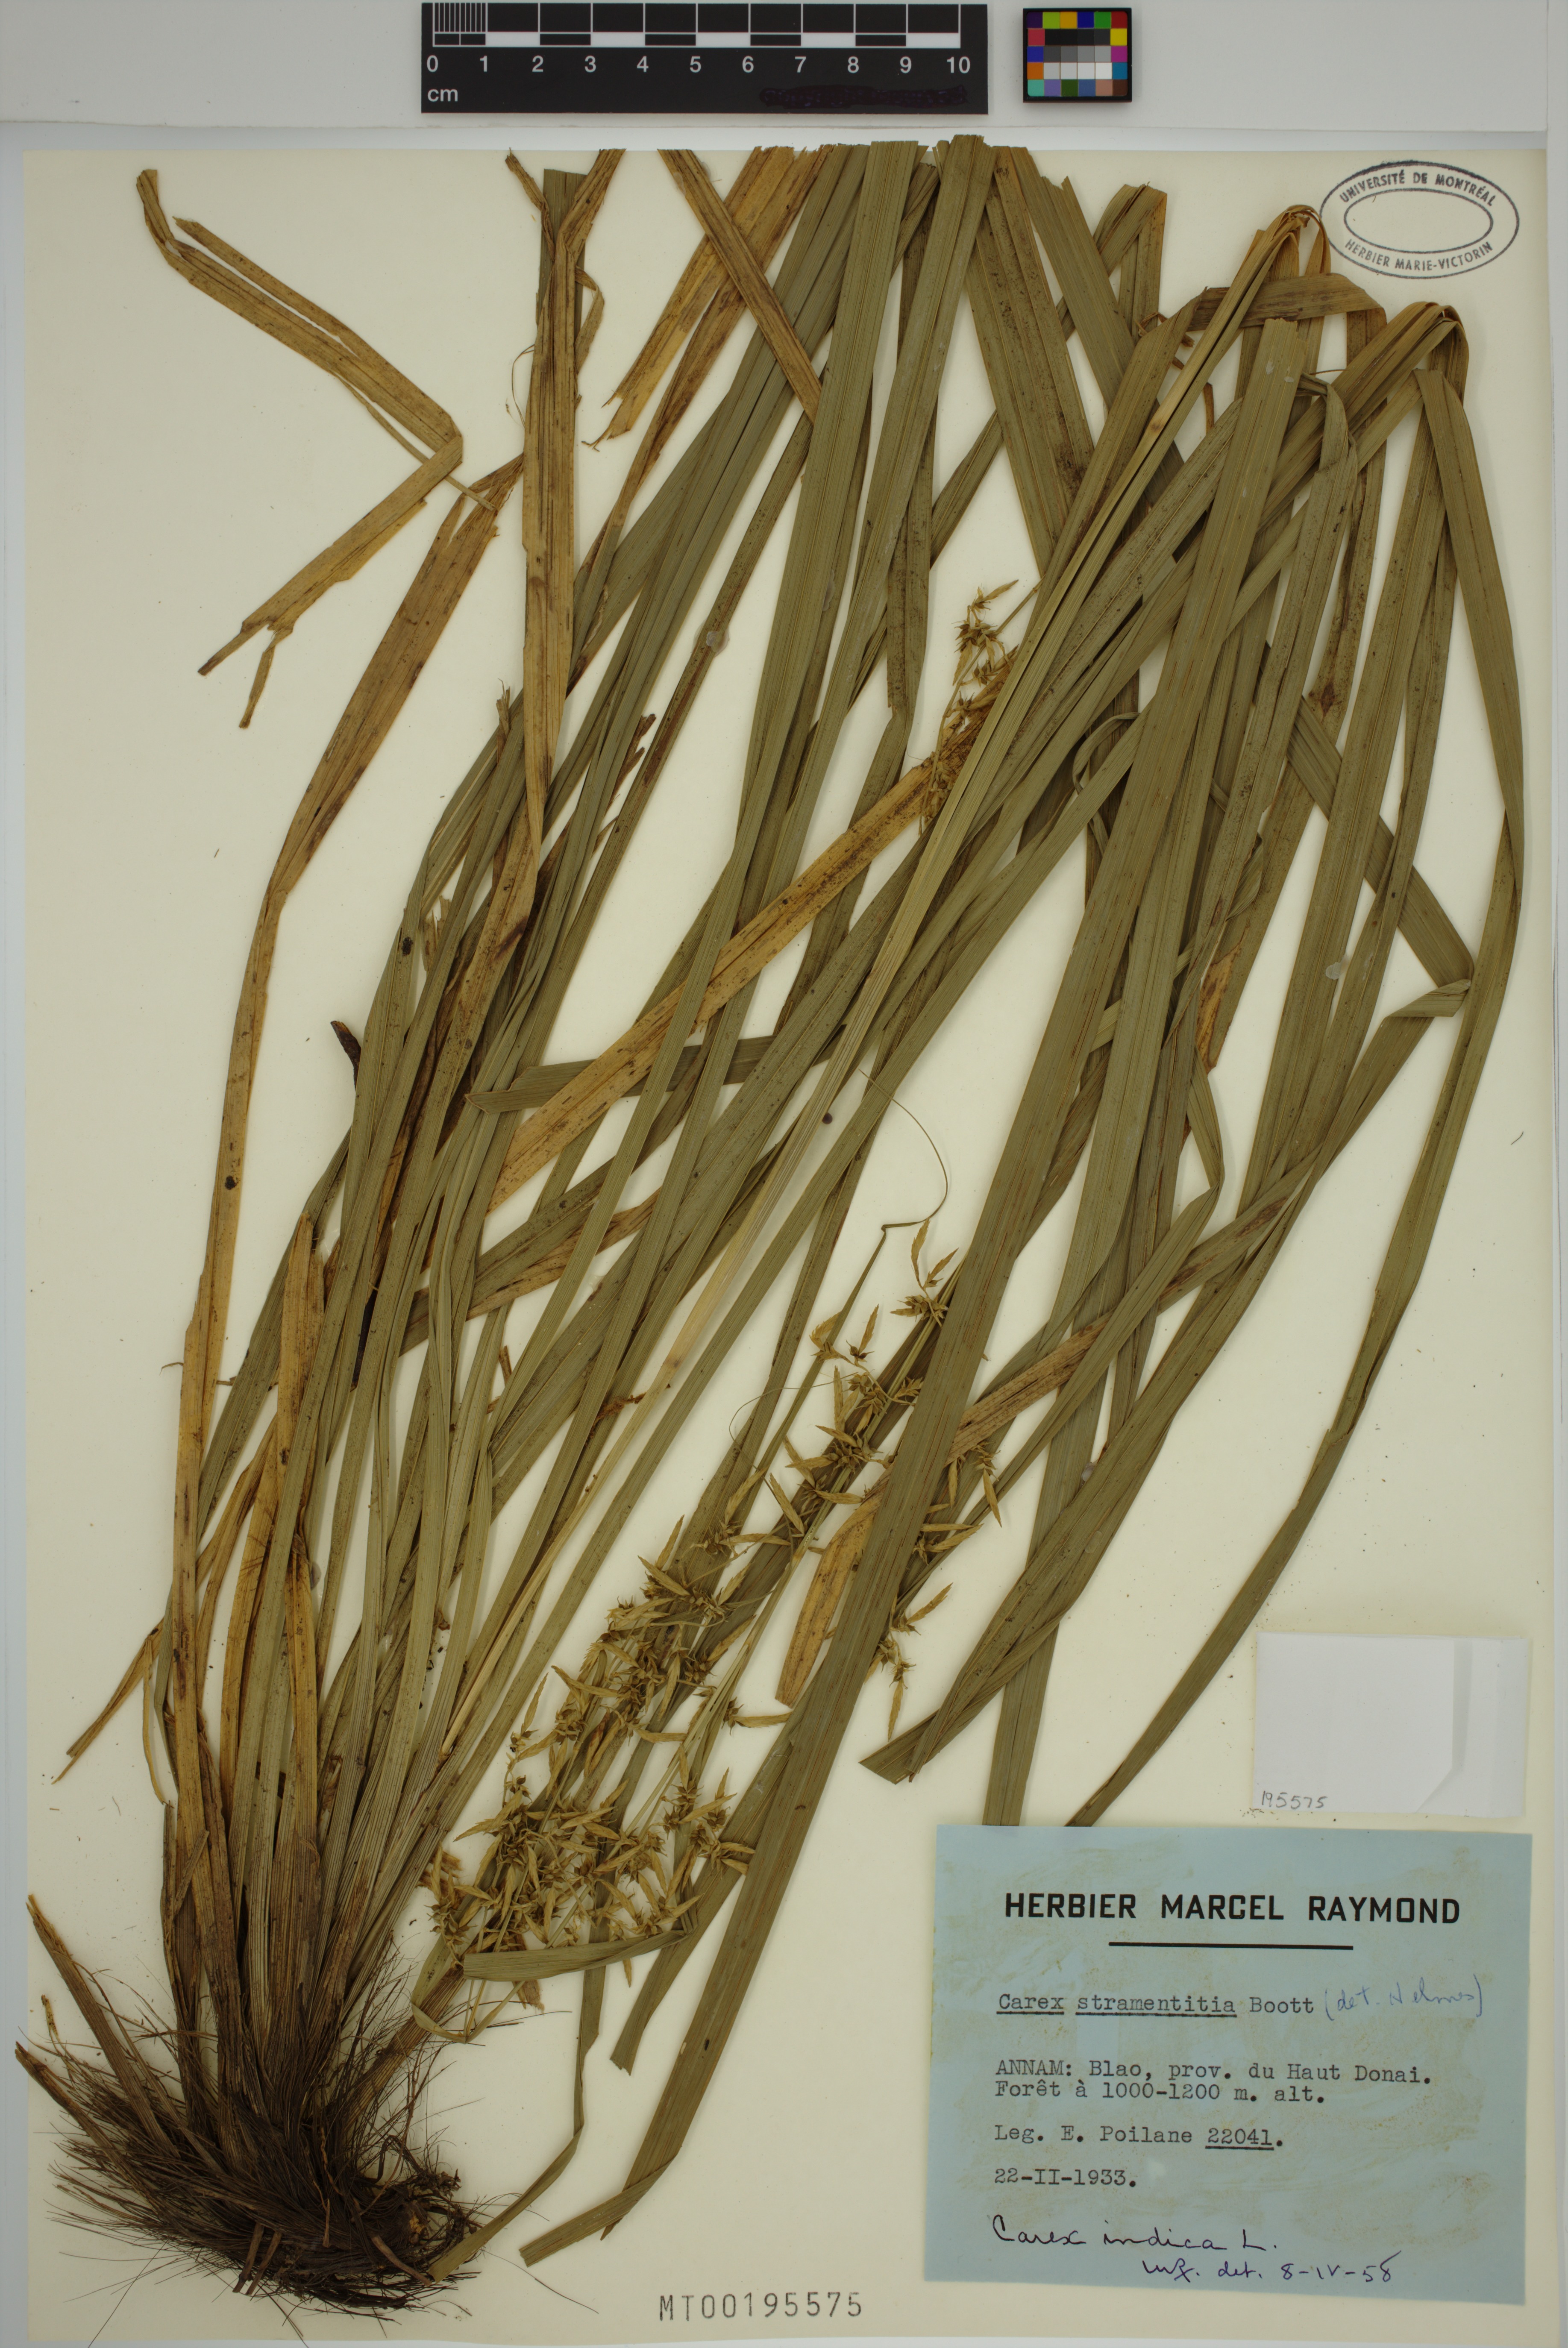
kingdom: Plantae
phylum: Tracheophyta
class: Liliopsida
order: Poales
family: Cyperaceae
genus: Carex
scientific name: Carex indica
